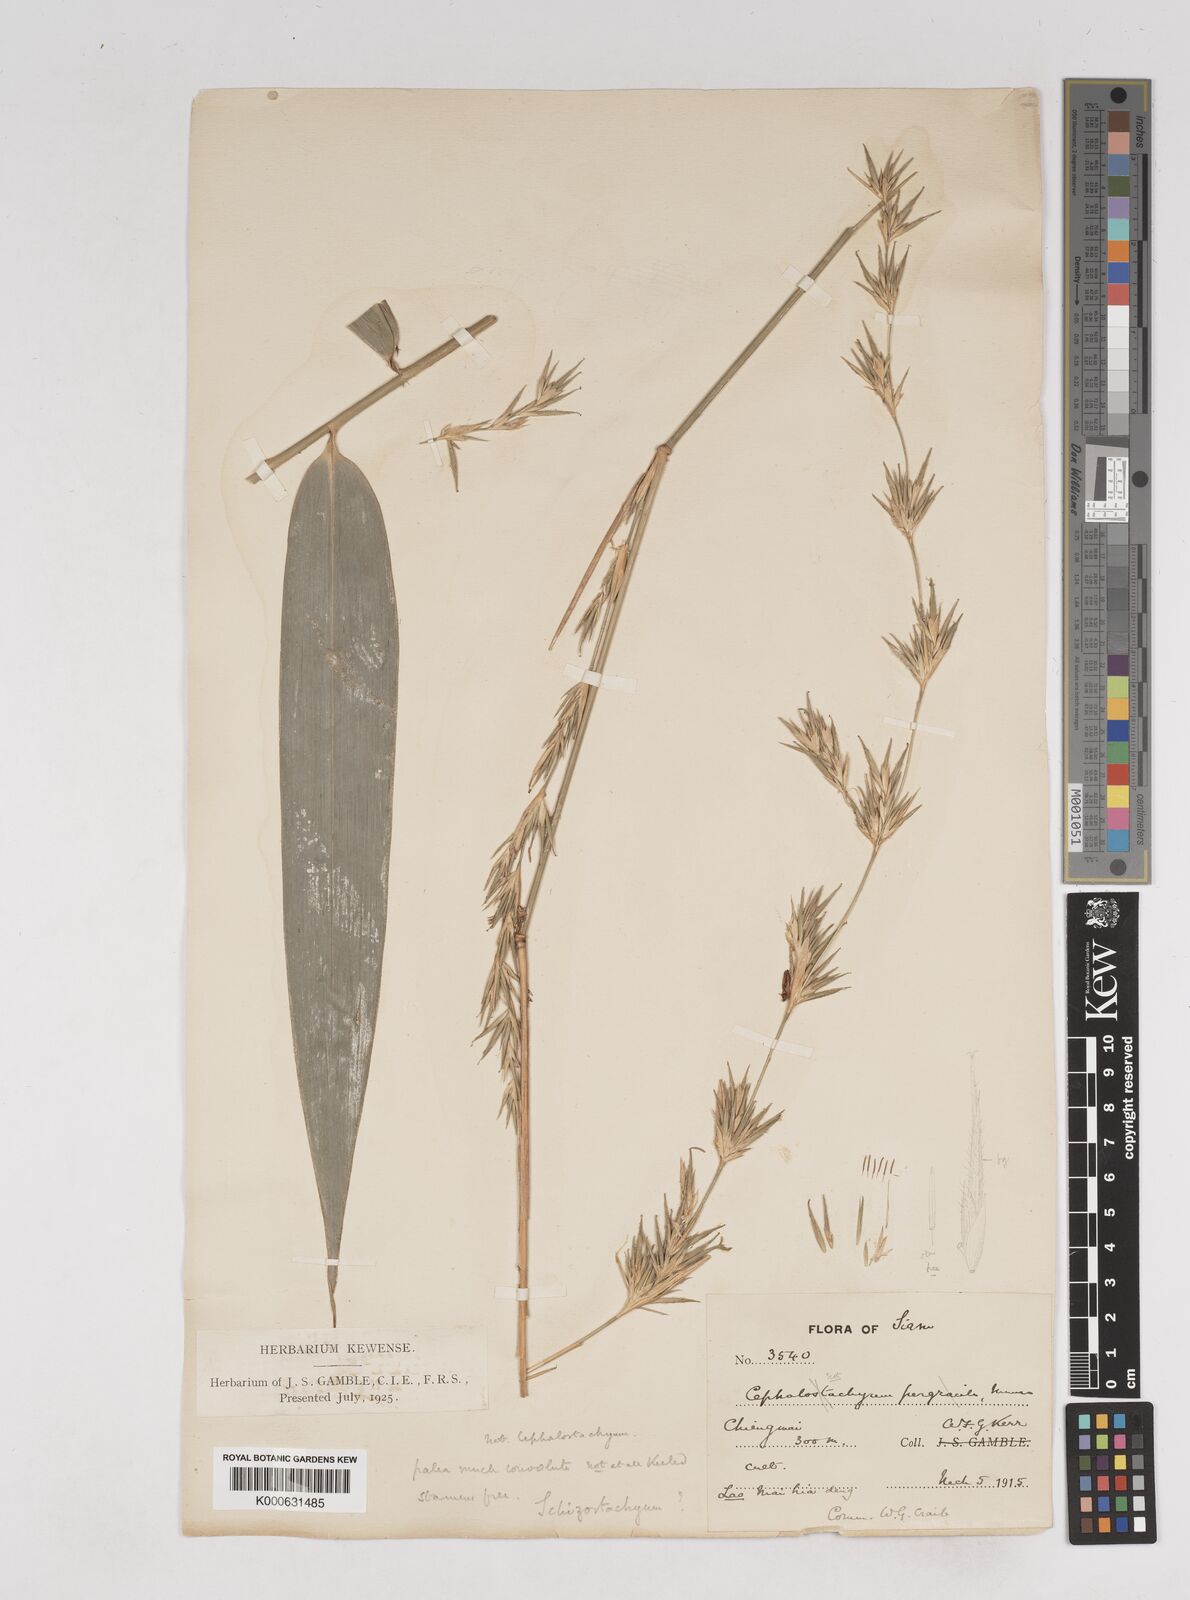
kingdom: Plantae
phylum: Tracheophyta
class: Liliopsida
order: Poales
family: Poaceae
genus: Schizostachyum
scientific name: Schizostachyum pergracile
